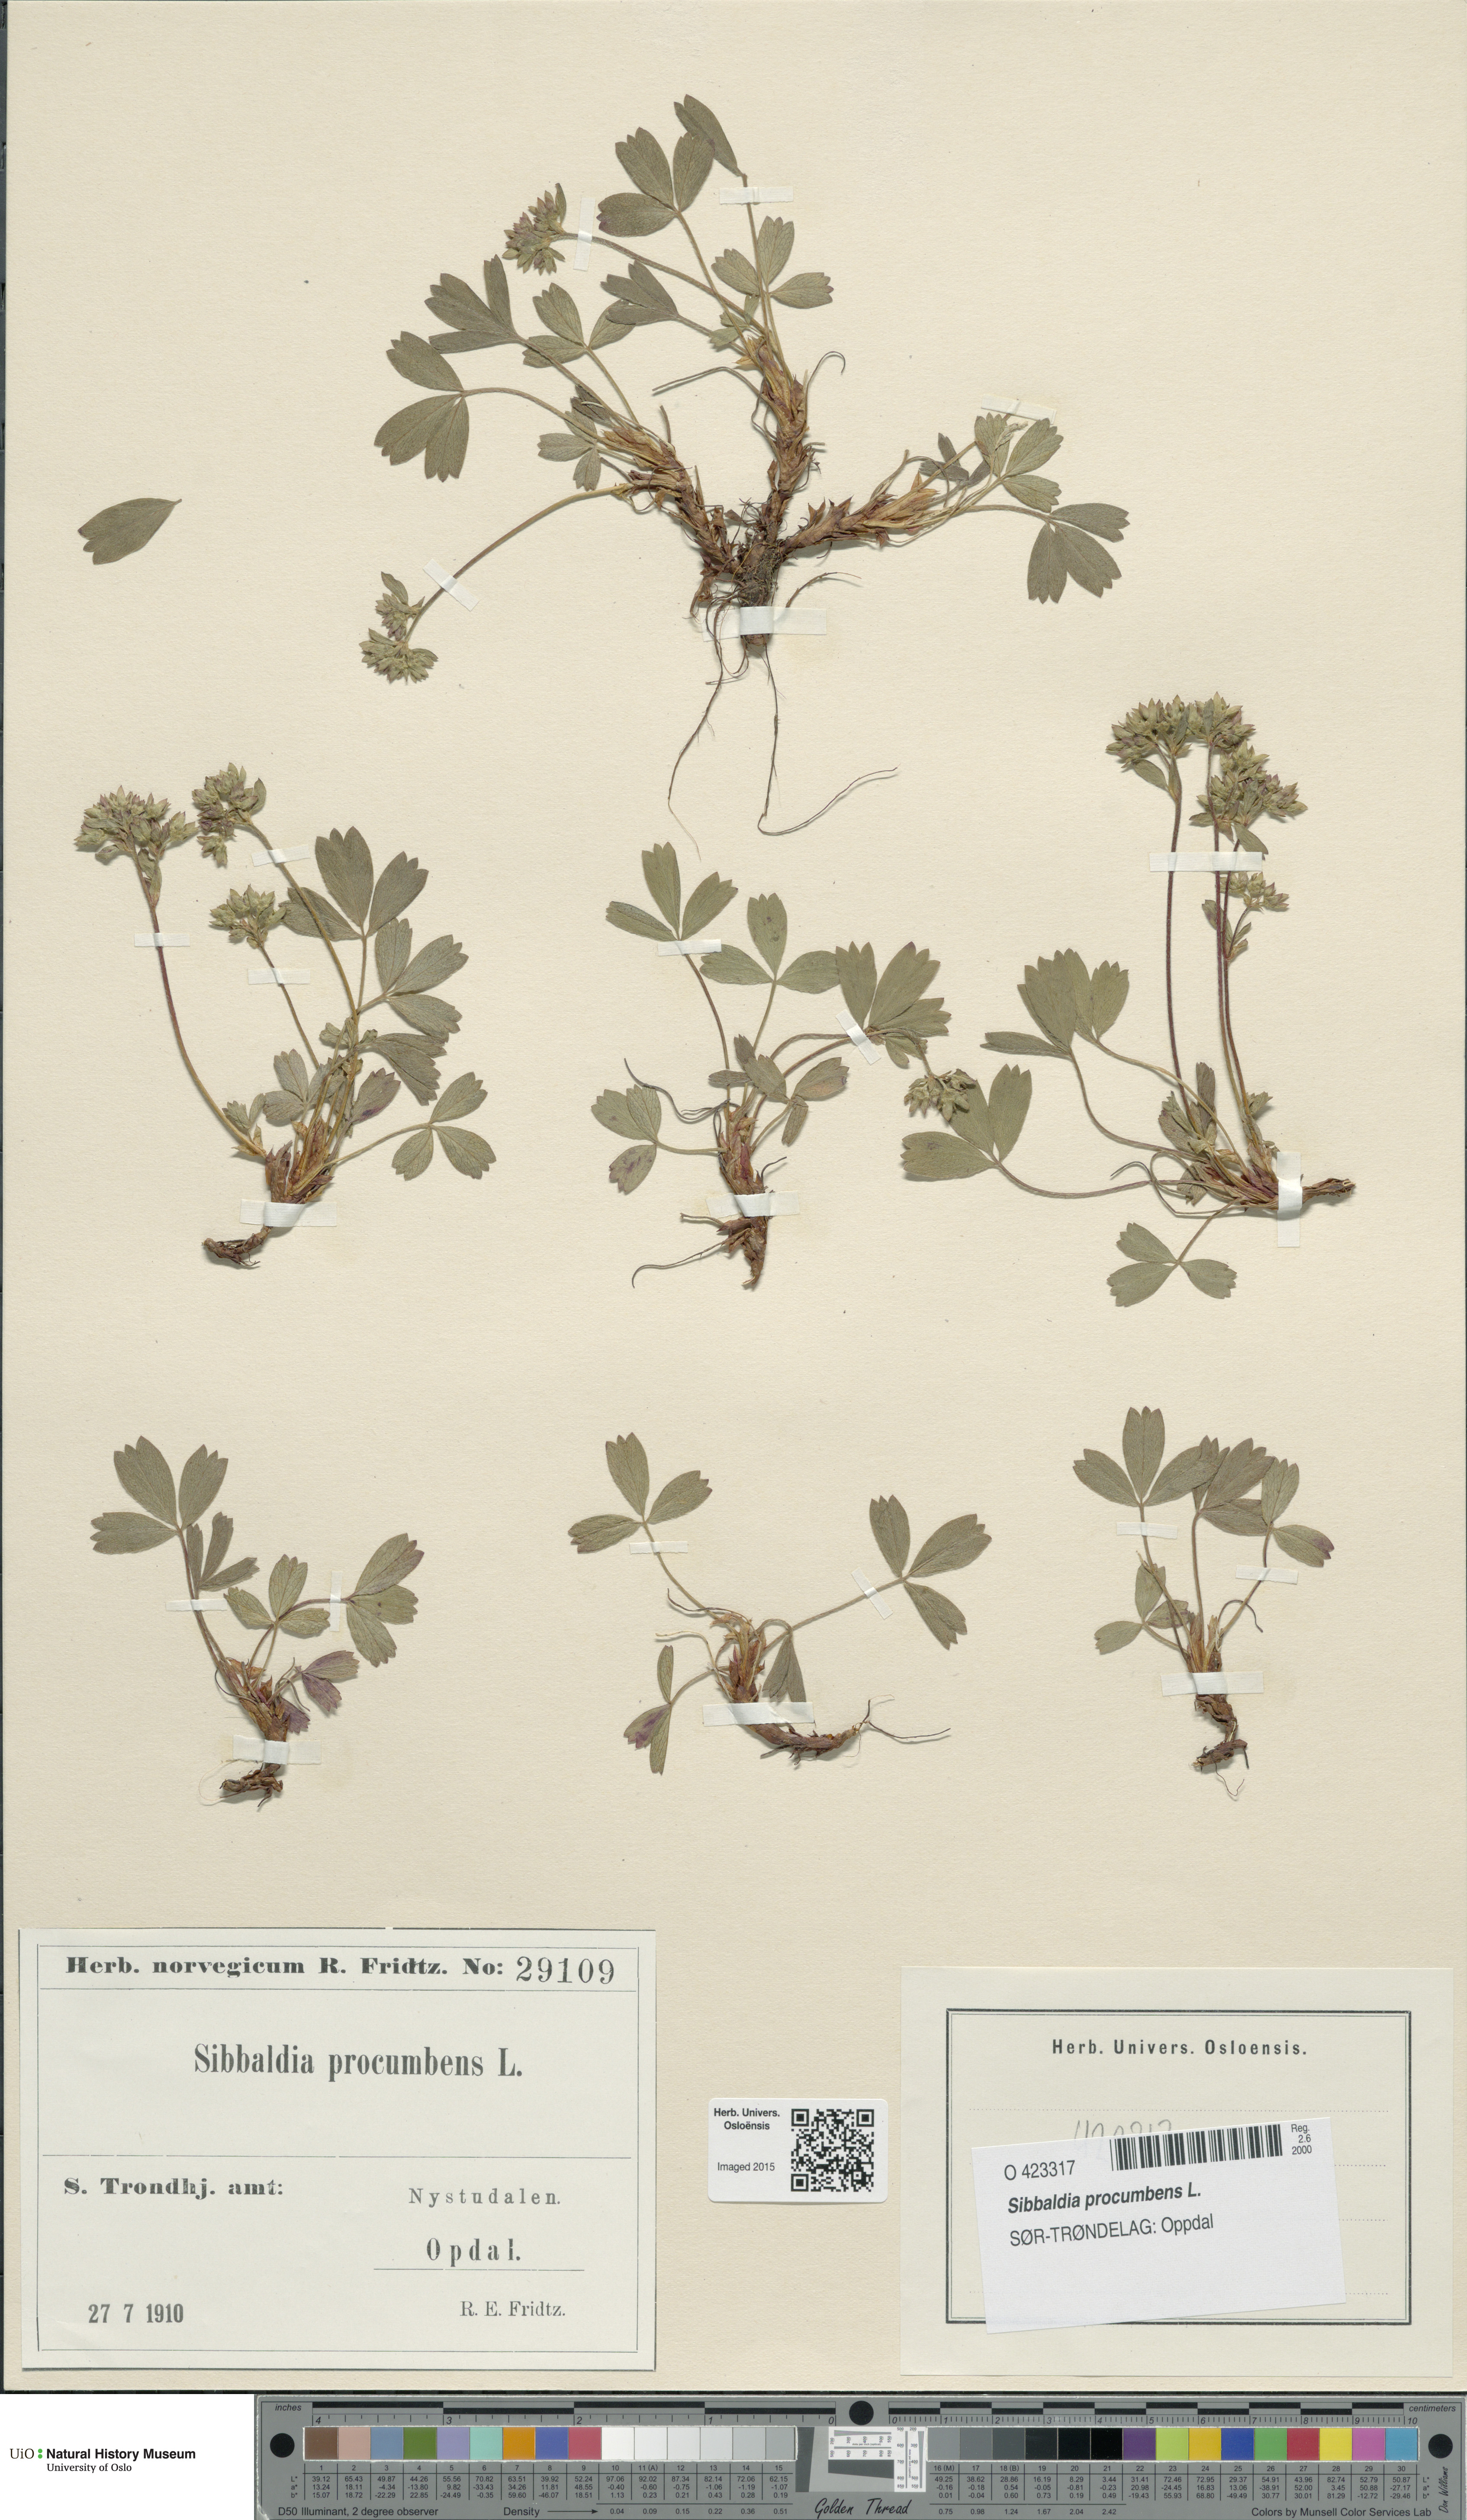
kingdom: Plantae
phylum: Tracheophyta
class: Magnoliopsida
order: Rosales
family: Rosaceae
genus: Sibbaldia
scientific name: Sibbaldia procumbens
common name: Creeping sibbaldia
